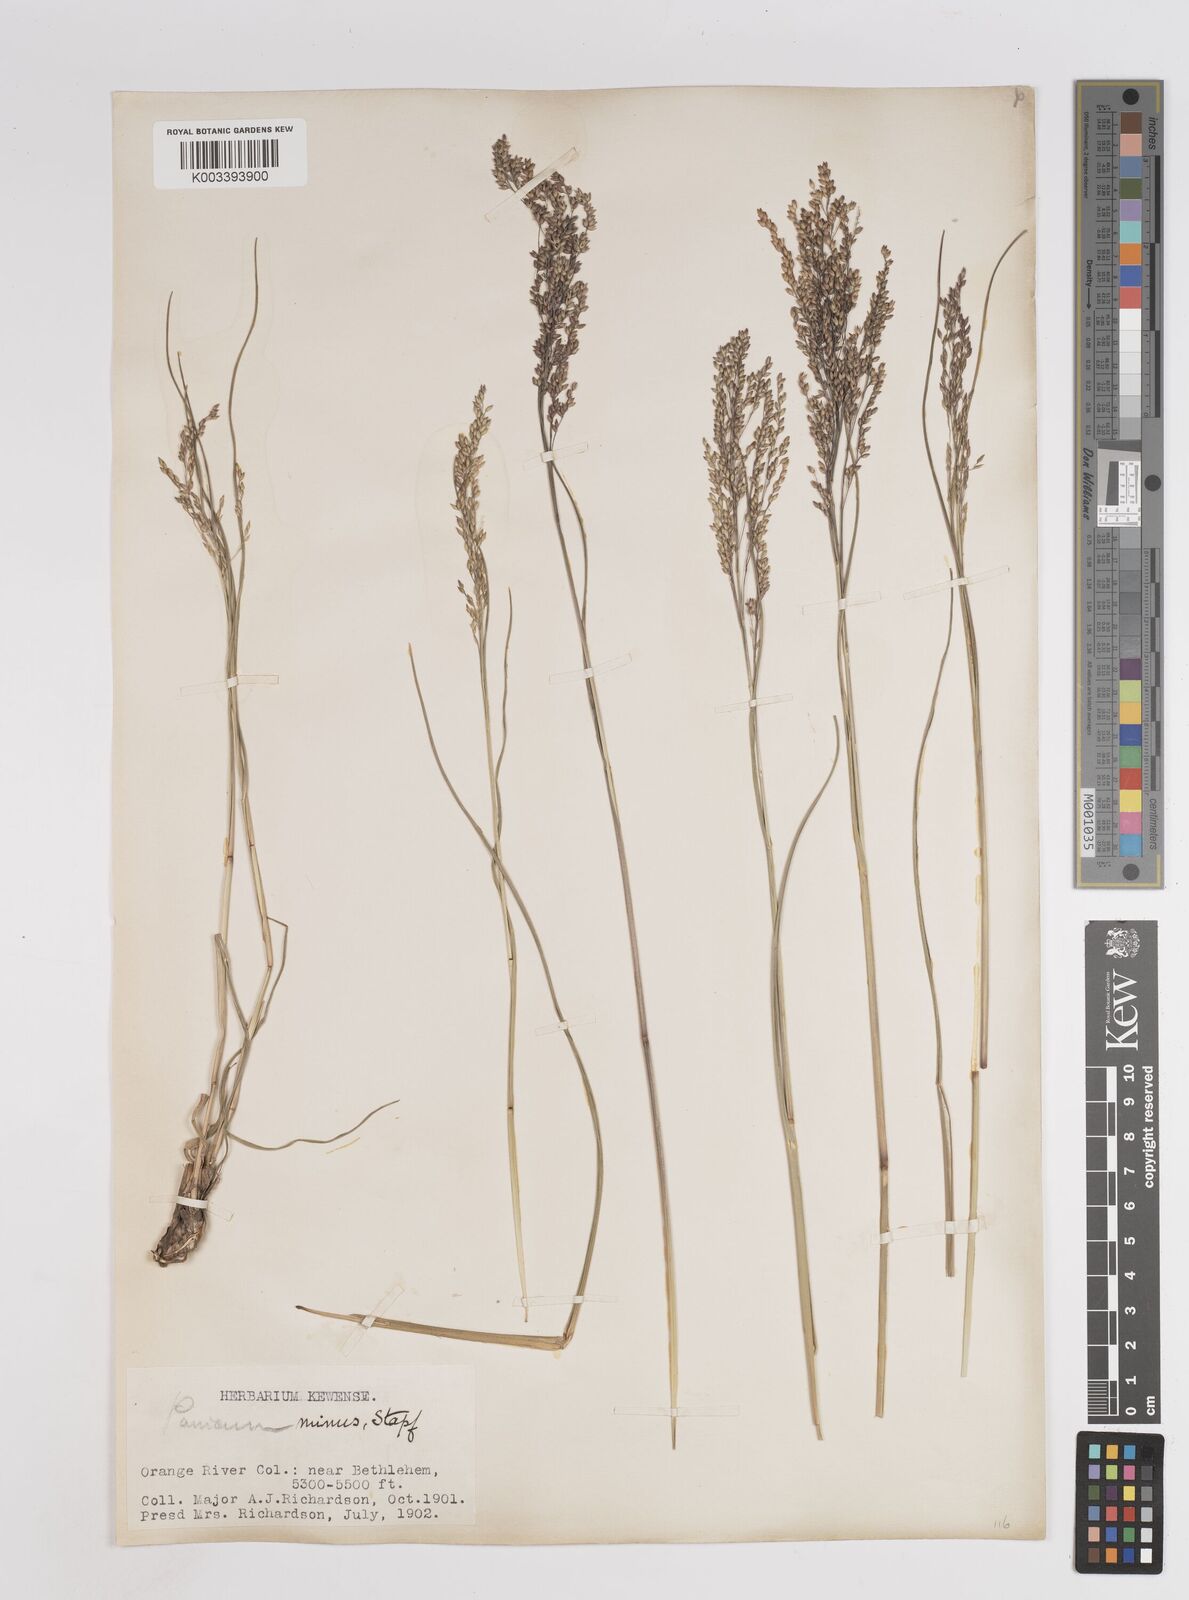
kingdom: Plantae
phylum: Tracheophyta
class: Liliopsida
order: Poales
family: Poaceae
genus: Panicum
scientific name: Panicum stapfianum
